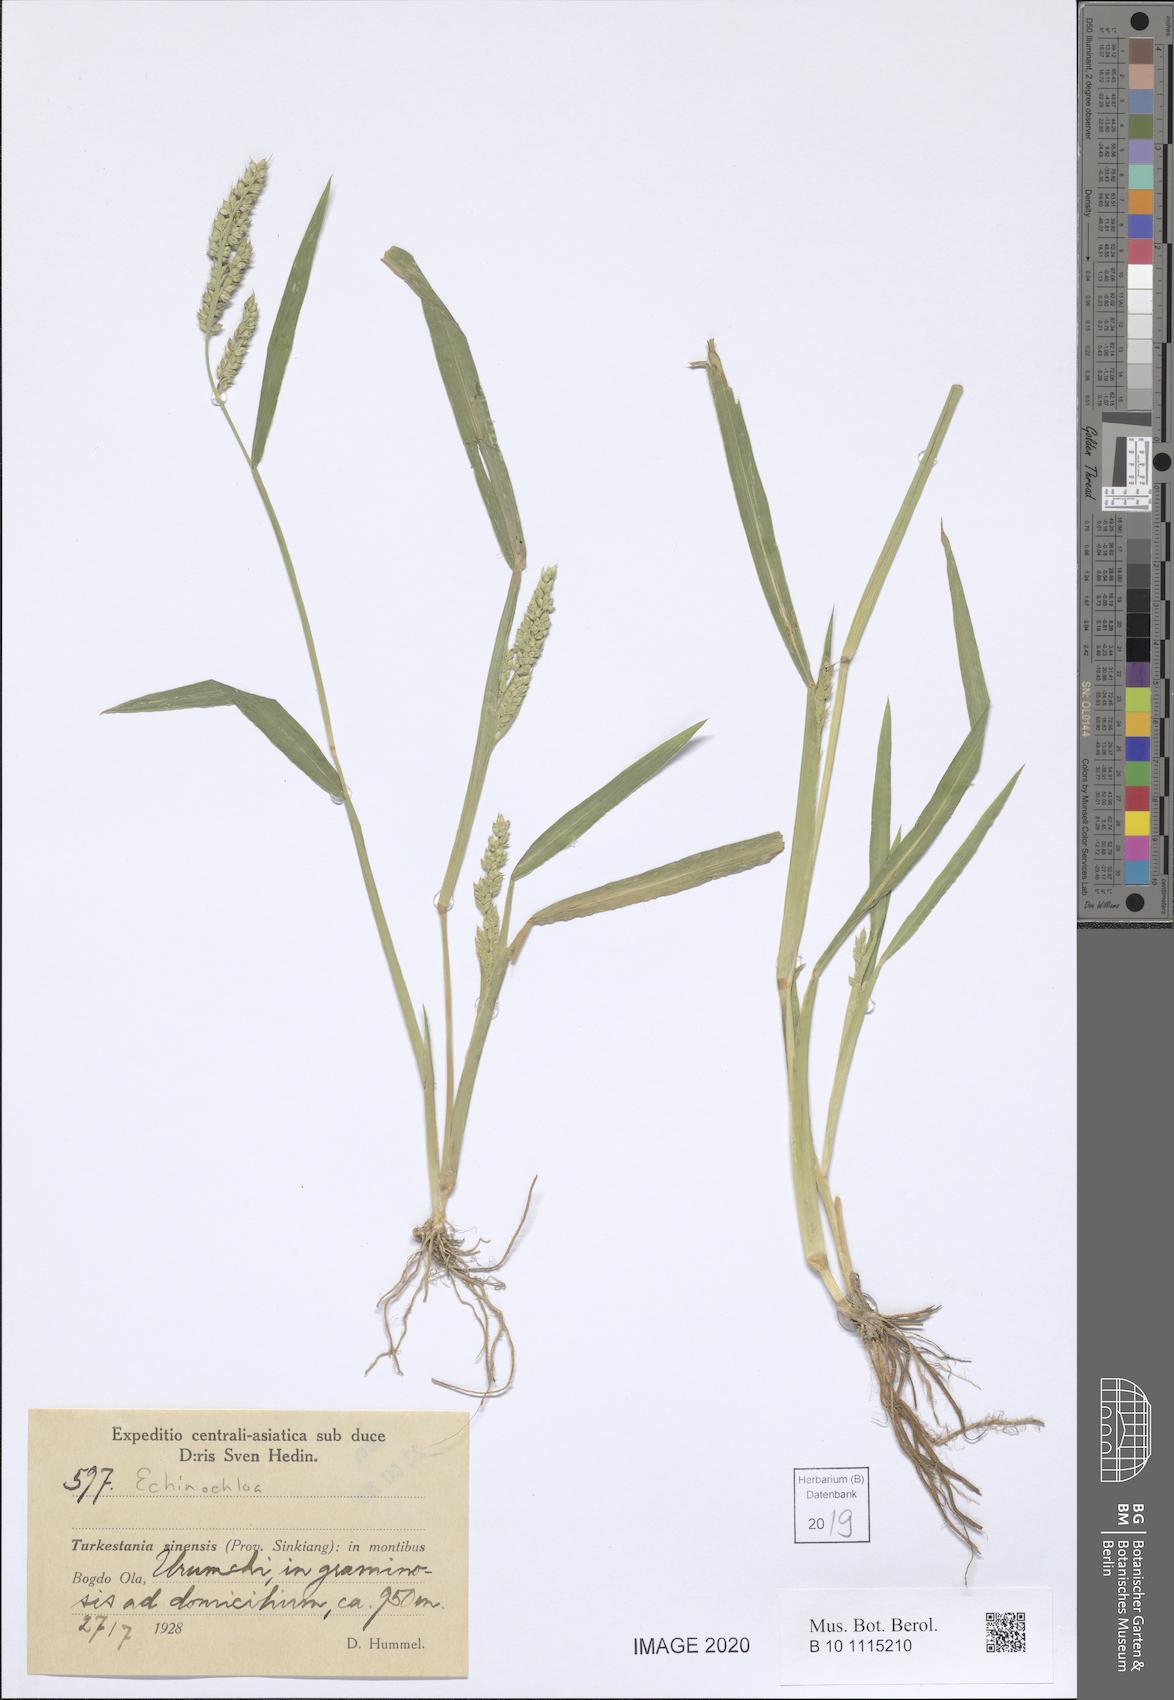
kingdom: Plantae
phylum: Tracheophyta
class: Liliopsida
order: Poales
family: Poaceae
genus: Echinochloa
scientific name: Echinochloa
